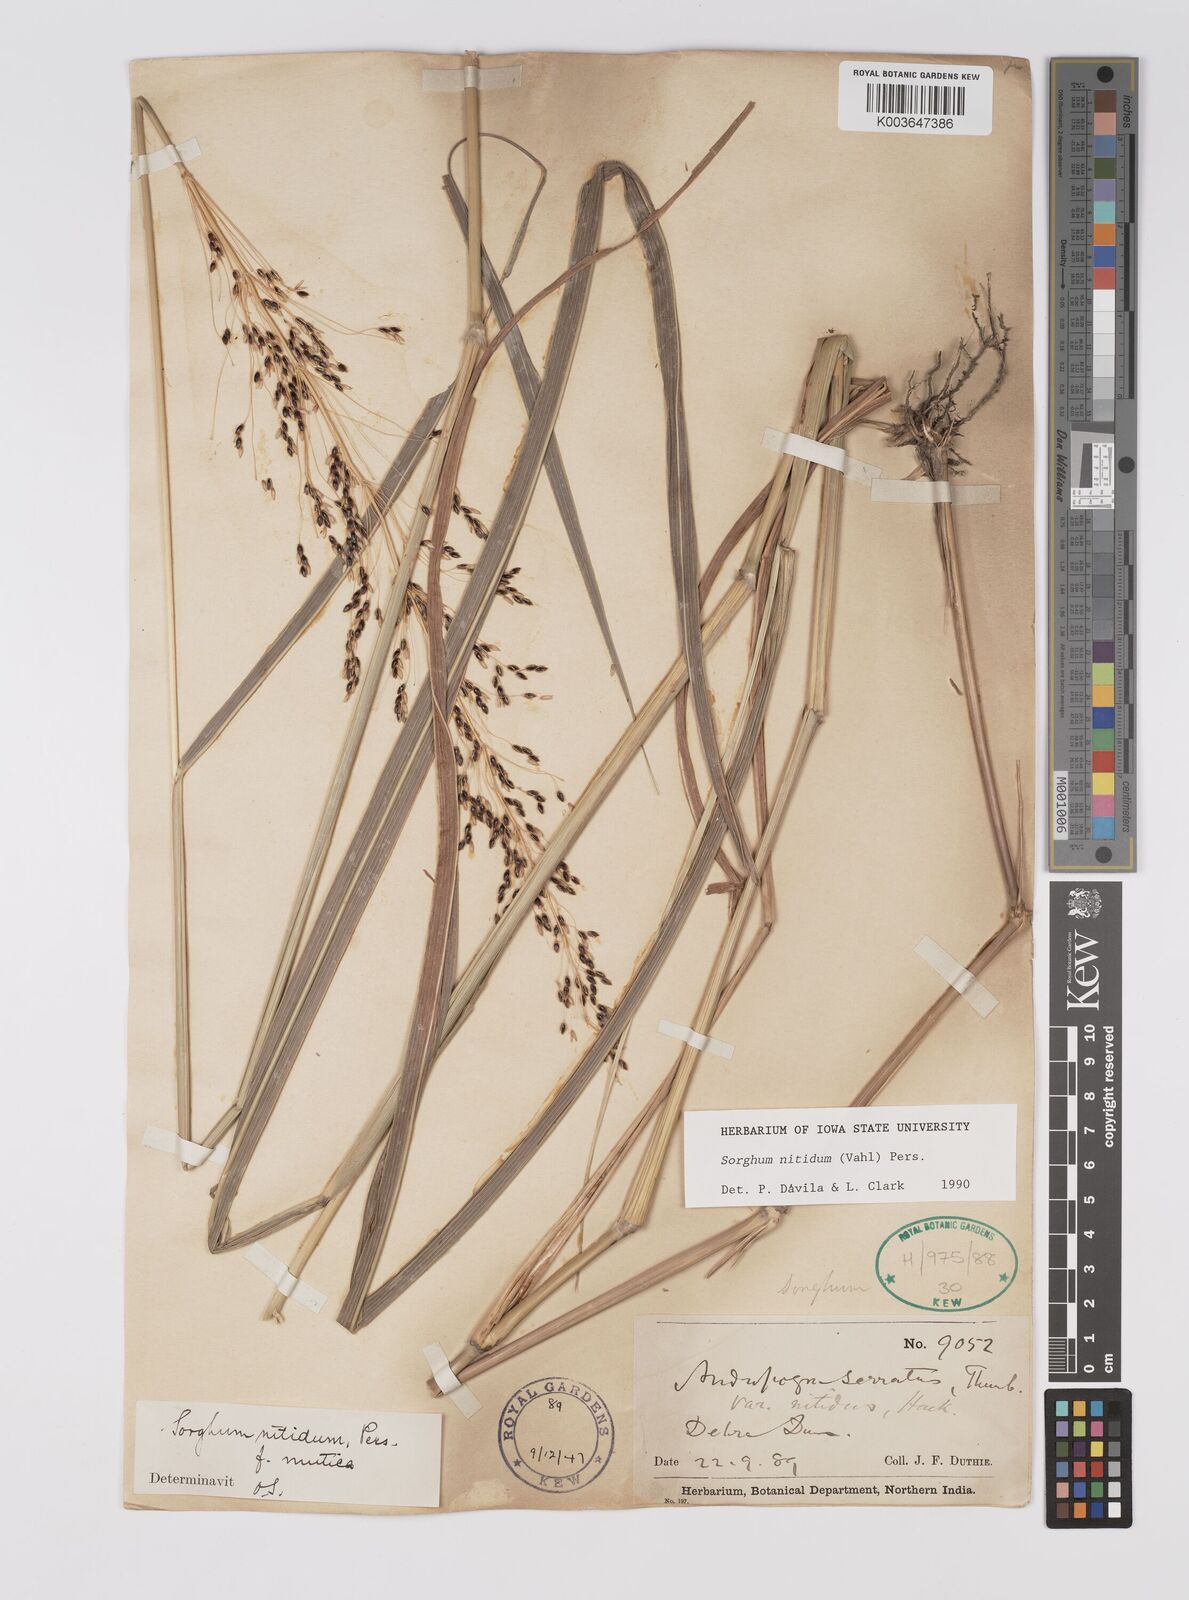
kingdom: Plantae
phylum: Tracheophyta
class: Liliopsida
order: Poales
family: Poaceae
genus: Sorghum
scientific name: Sorghum nitidum
